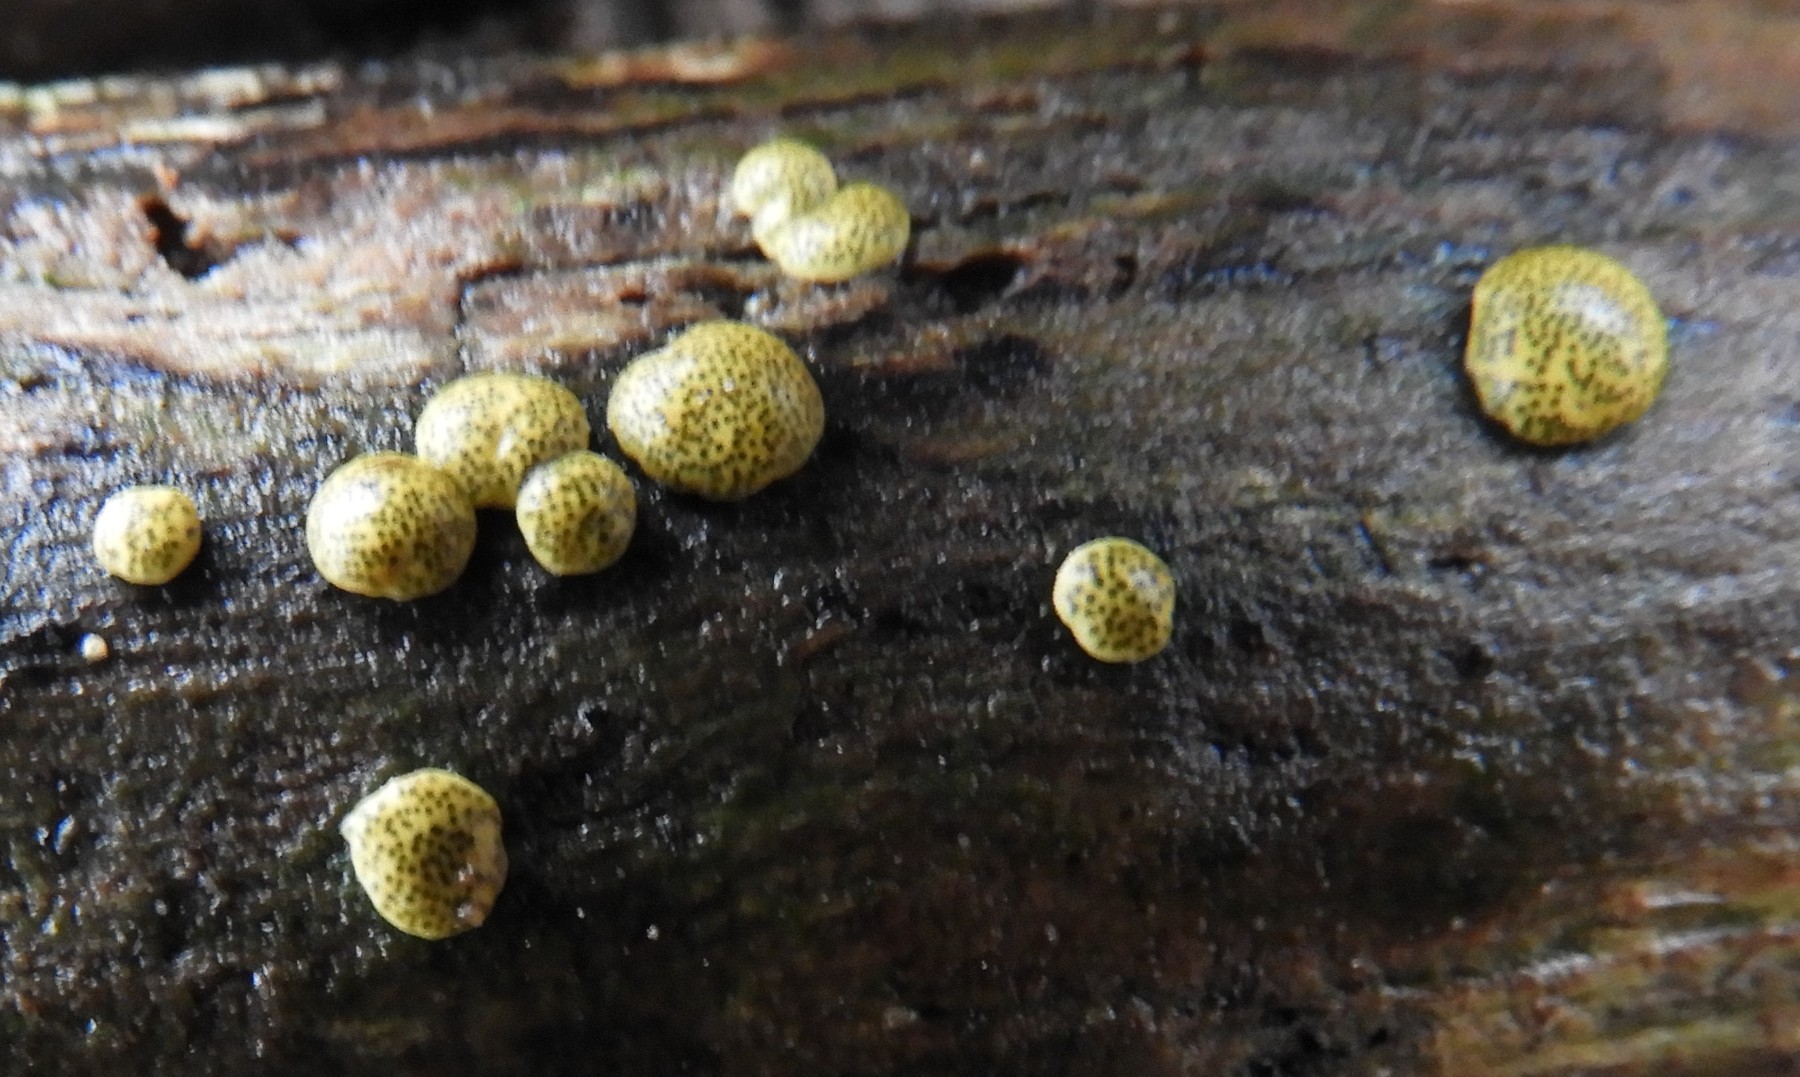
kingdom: Fungi
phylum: Ascomycota
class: Sordariomycetes
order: Hypocreales
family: Hypocreaceae
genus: Trichoderma
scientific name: Trichoderma aureoviride
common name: æggegul kødkerne
